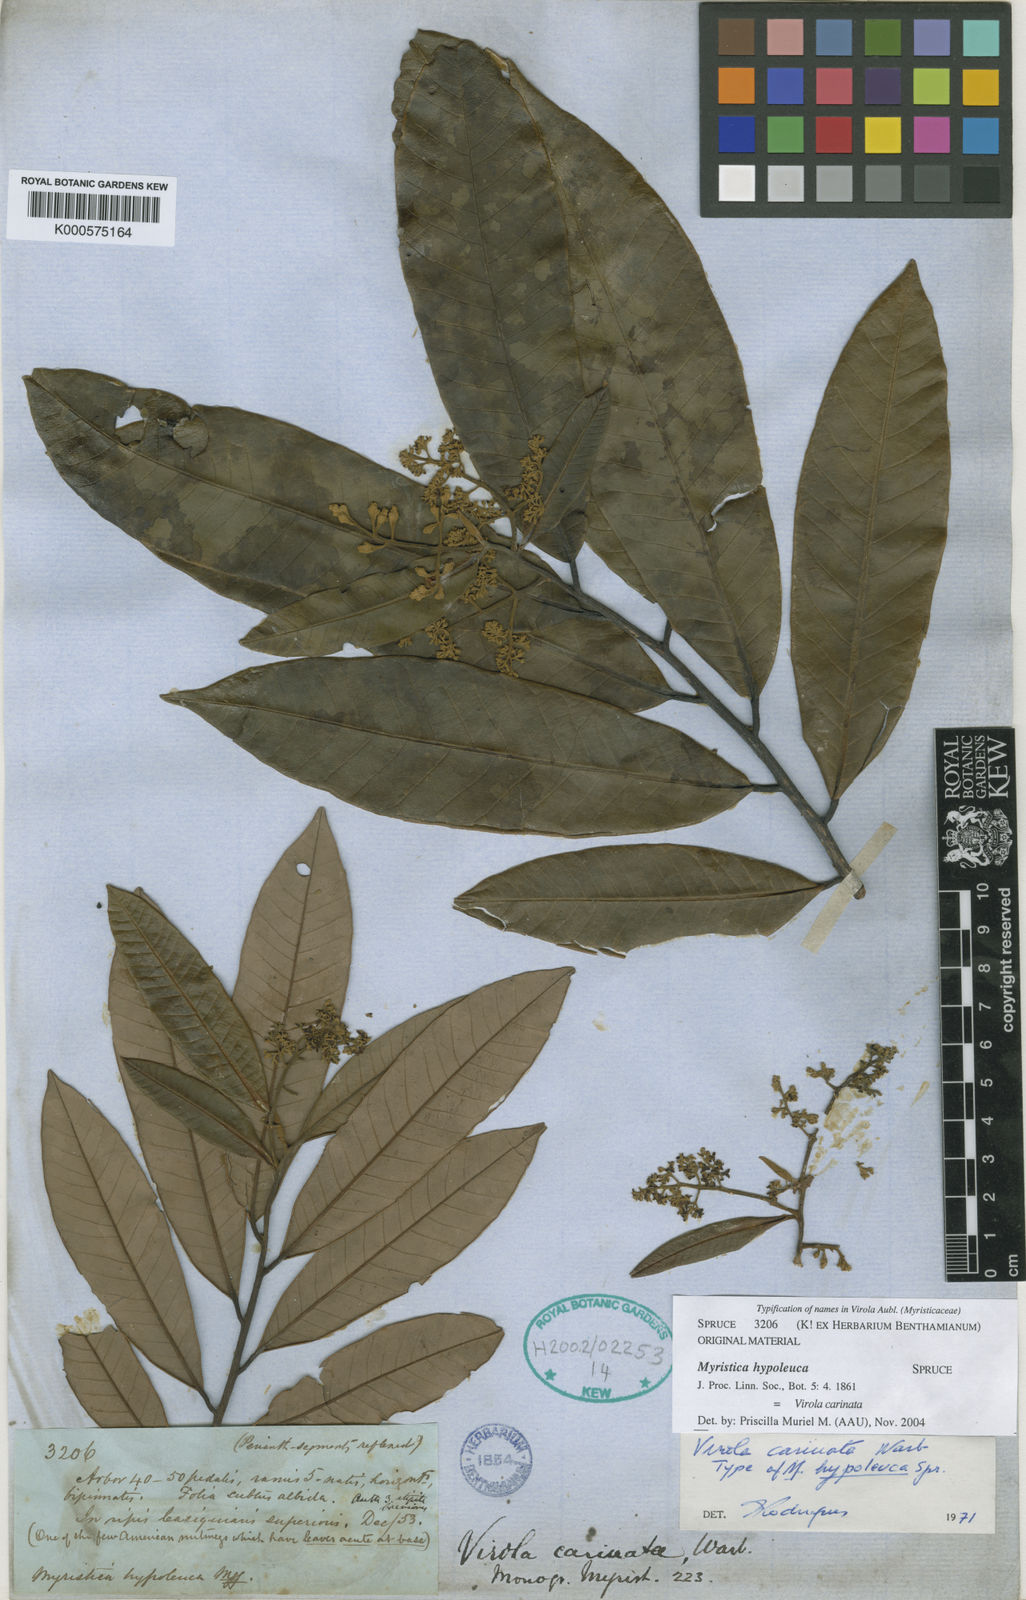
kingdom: Plantae
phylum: Tracheophyta
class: Magnoliopsida
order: Magnoliales
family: Myristicaceae
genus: Virola
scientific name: Virola carinata
